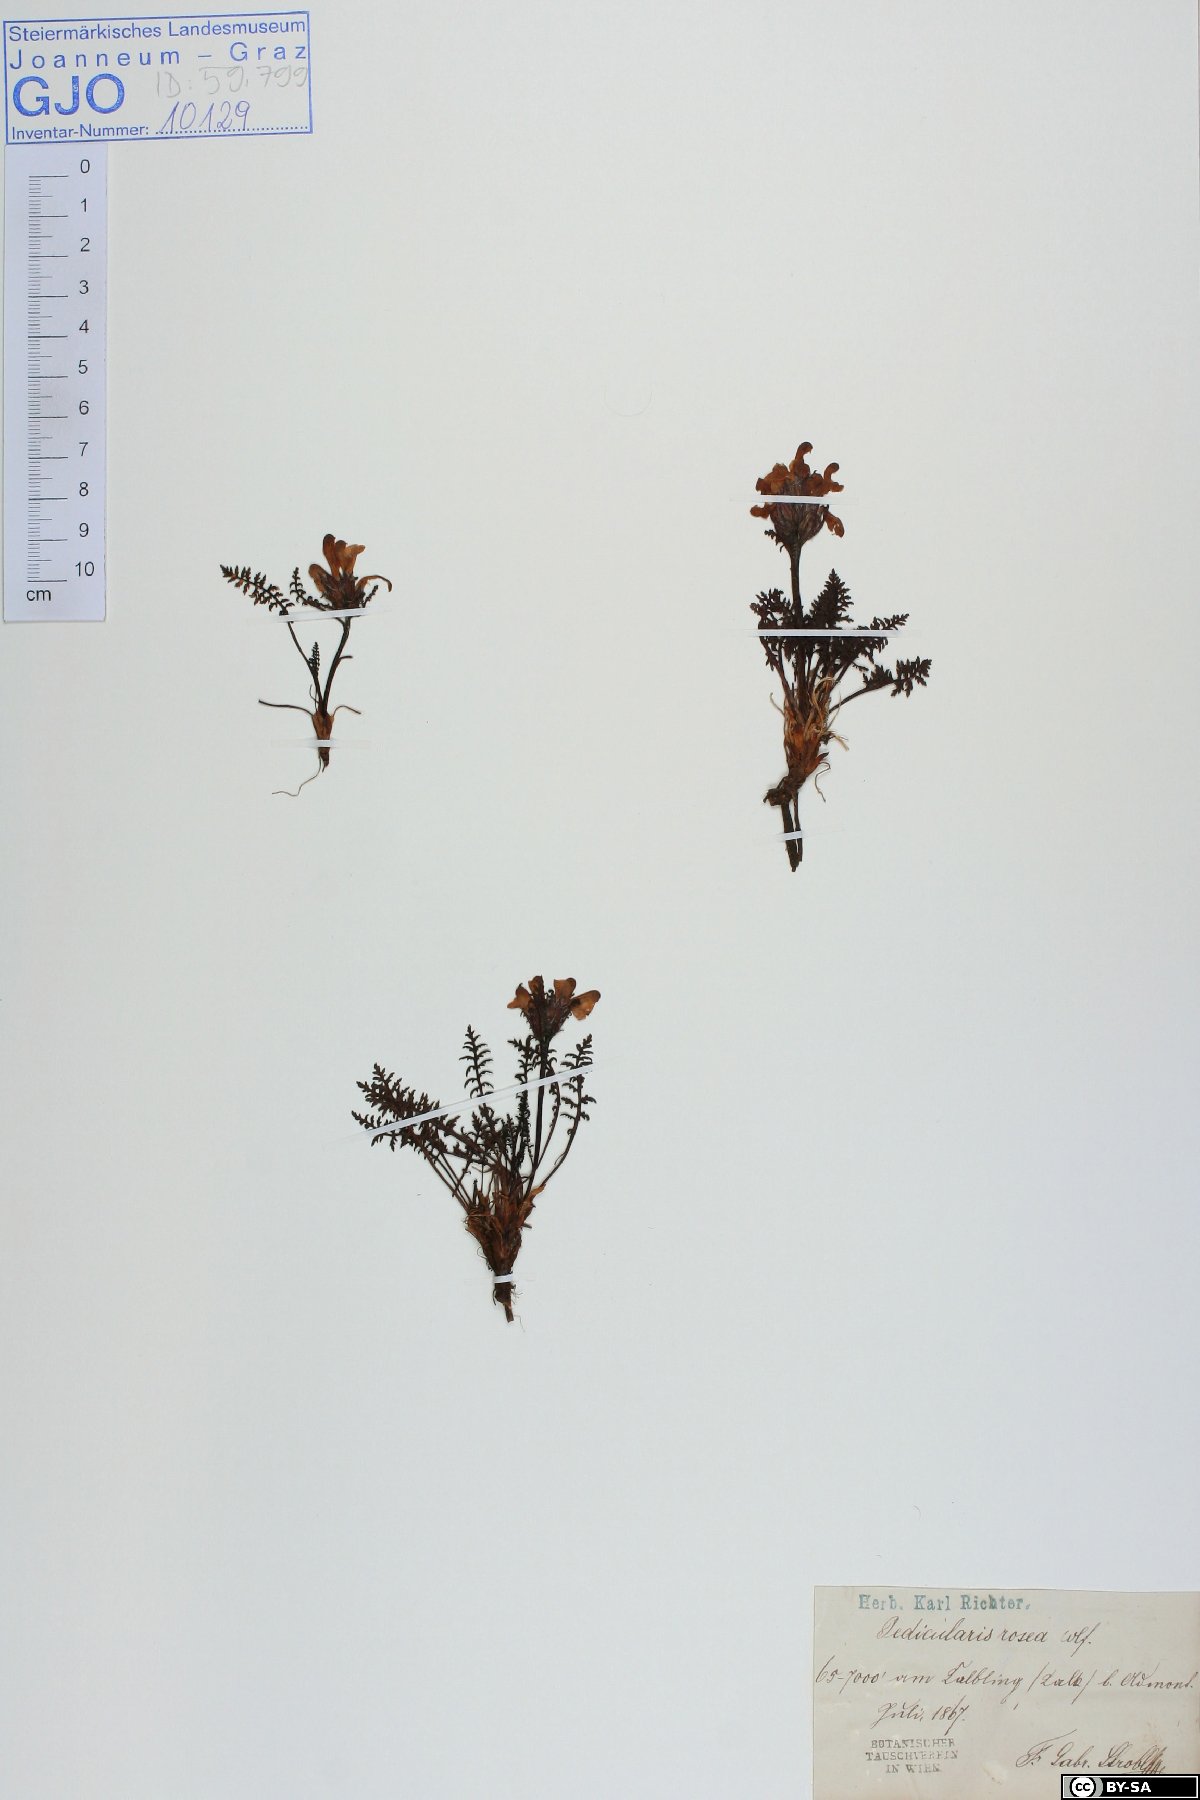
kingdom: Plantae
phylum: Tracheophyta
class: Magnoliopsida
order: Lamiales
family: Orobanchaceae
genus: Pedicularis
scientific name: Pedicularis rosea
